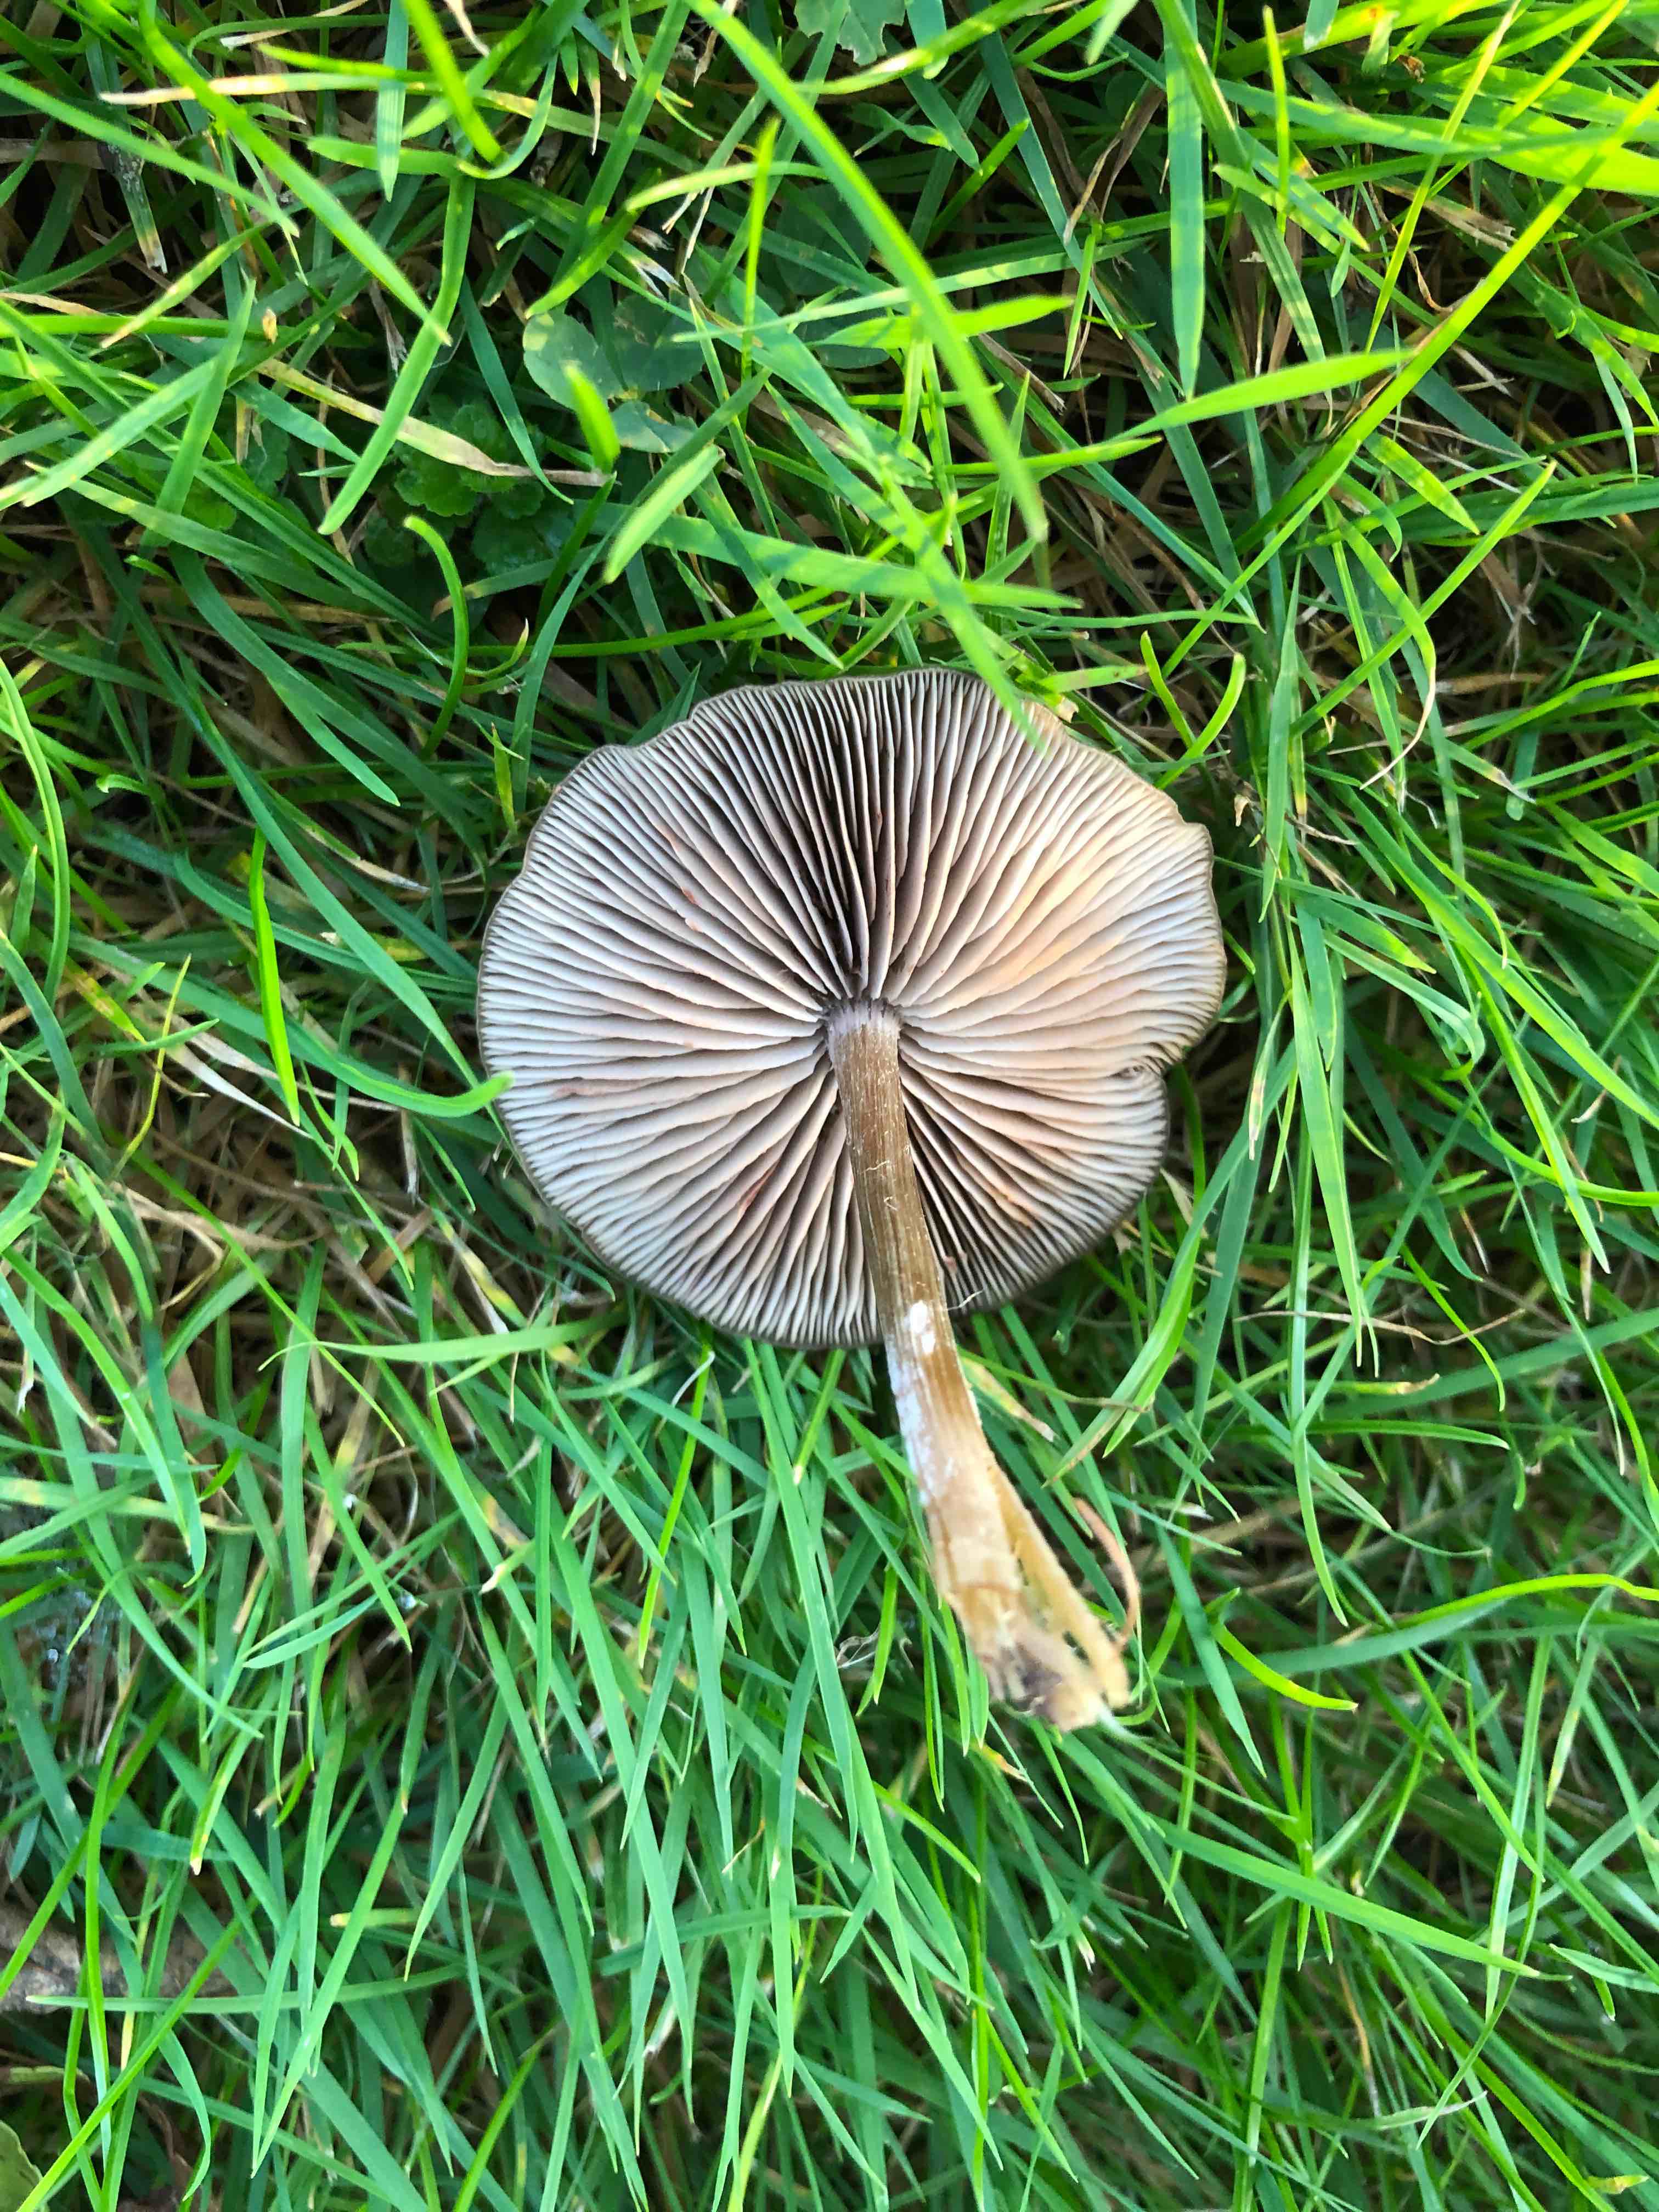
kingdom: Fungi
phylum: Basidiomycota
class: Agaricomycetes
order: Agaricales
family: Entolomataceae
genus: Entoloma
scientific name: Entoloma sericeum
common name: silkeglinsende rødblad
